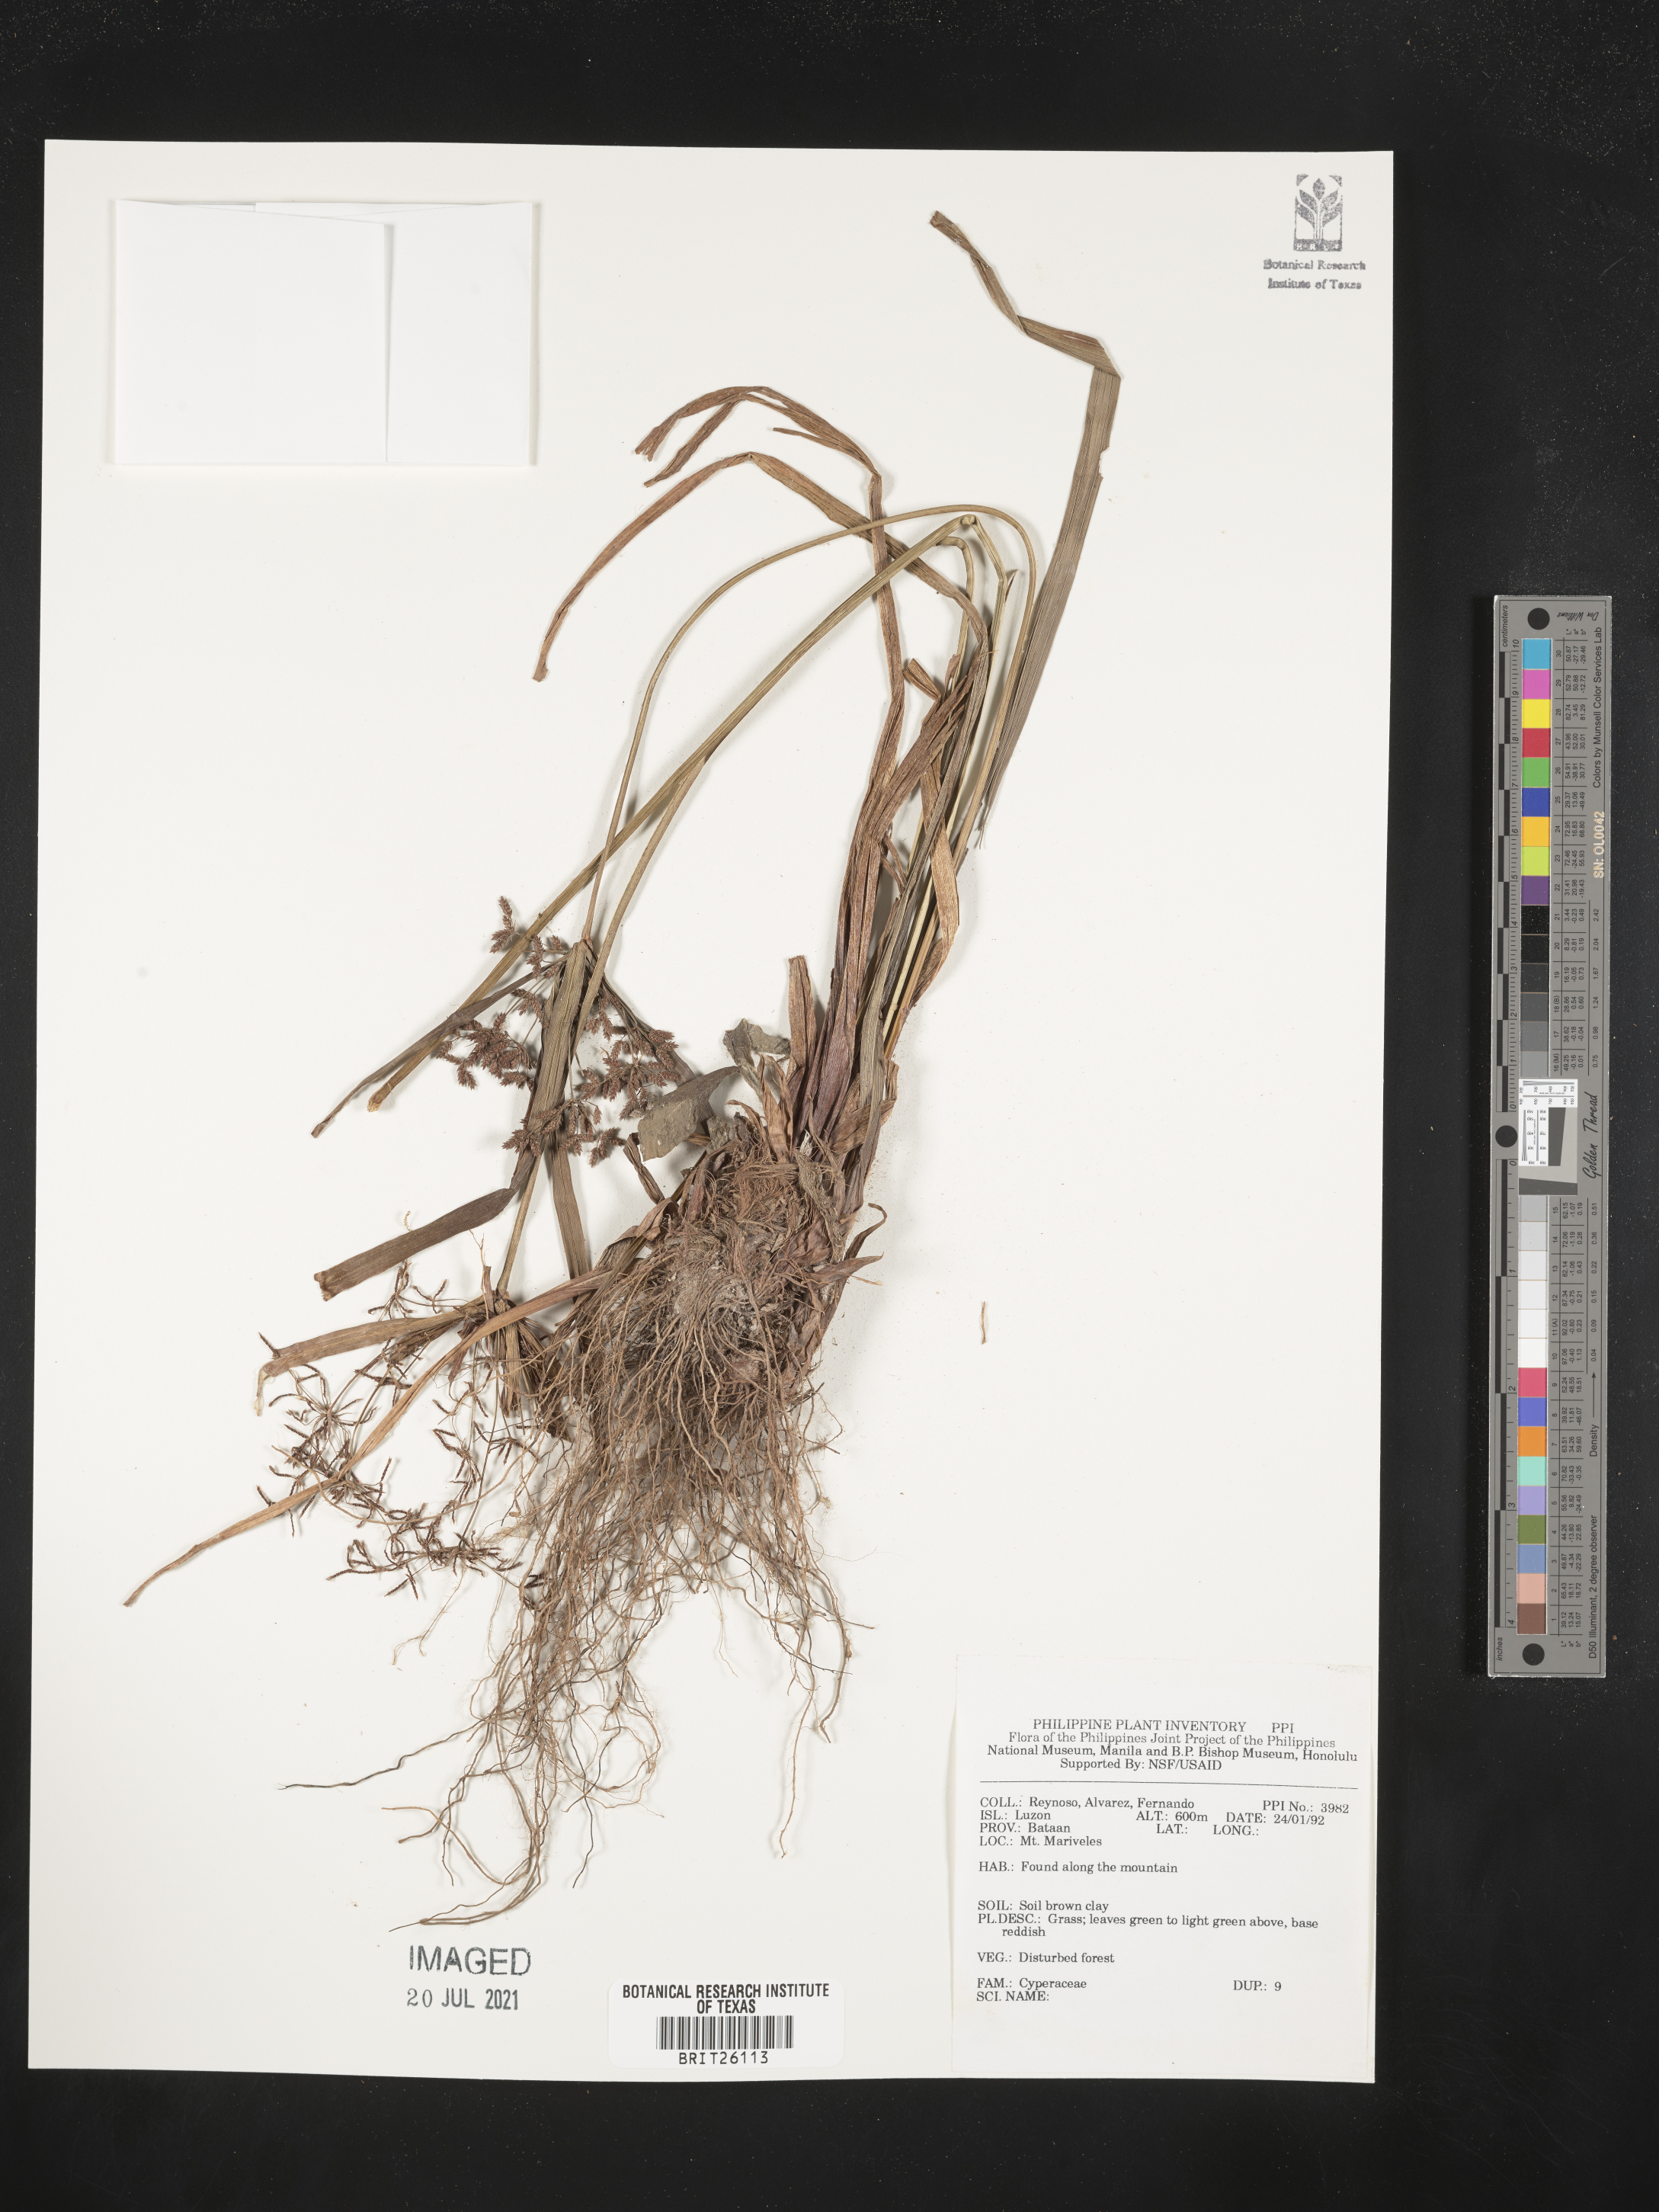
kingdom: Plantae
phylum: Tracheophyta
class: Liliopsida
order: Poales
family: Cyperaceae
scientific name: Cyperaceae
